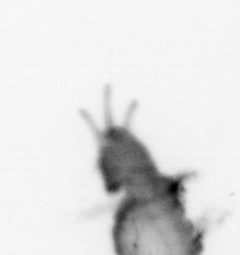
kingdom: Animalia
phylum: Annelida
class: Polychaeta
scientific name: Polychaeta
